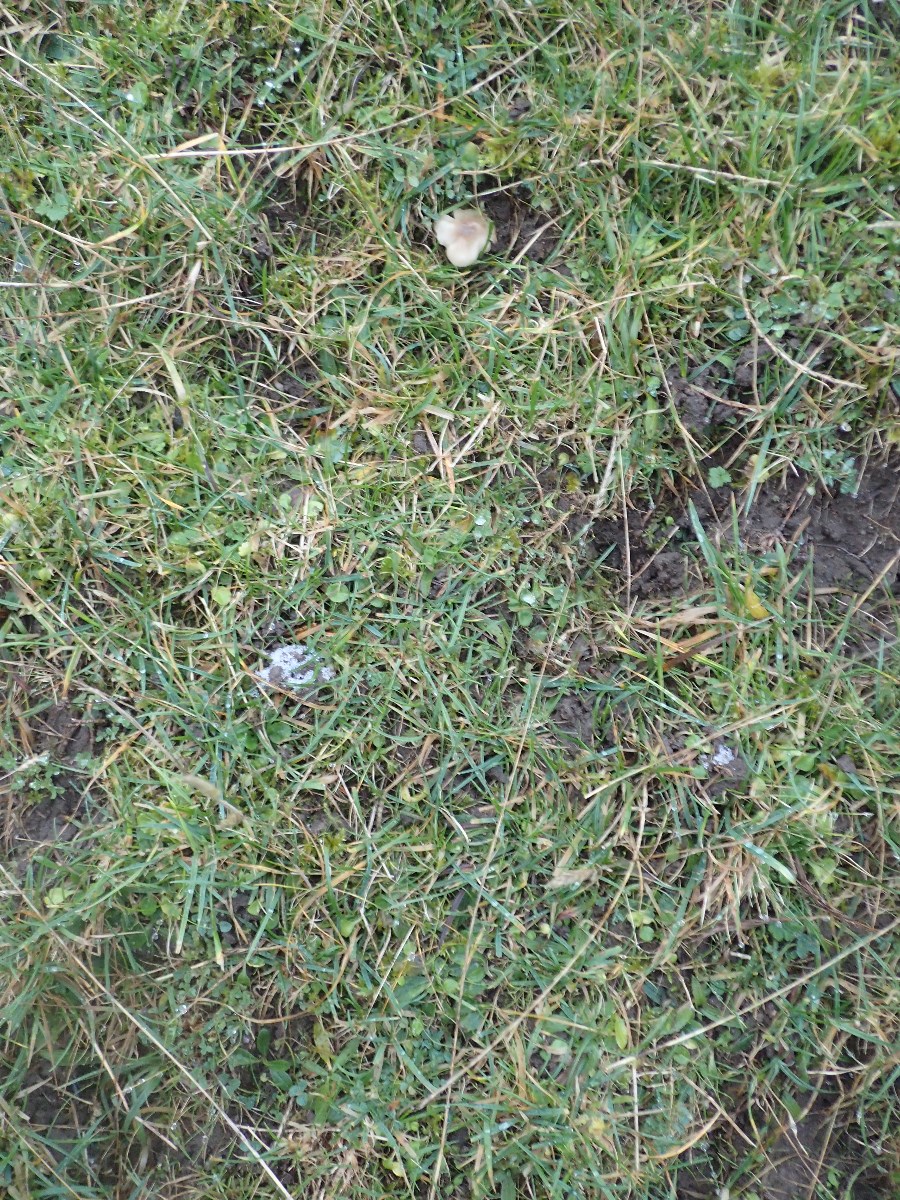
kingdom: Fungi
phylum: Basidiomycota
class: Agaricomycetes
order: Agaricales
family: Hygrophoraceae
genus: Cuphophyllus
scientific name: Cuphophyllus fornicatus
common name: gråbrun vokshat
